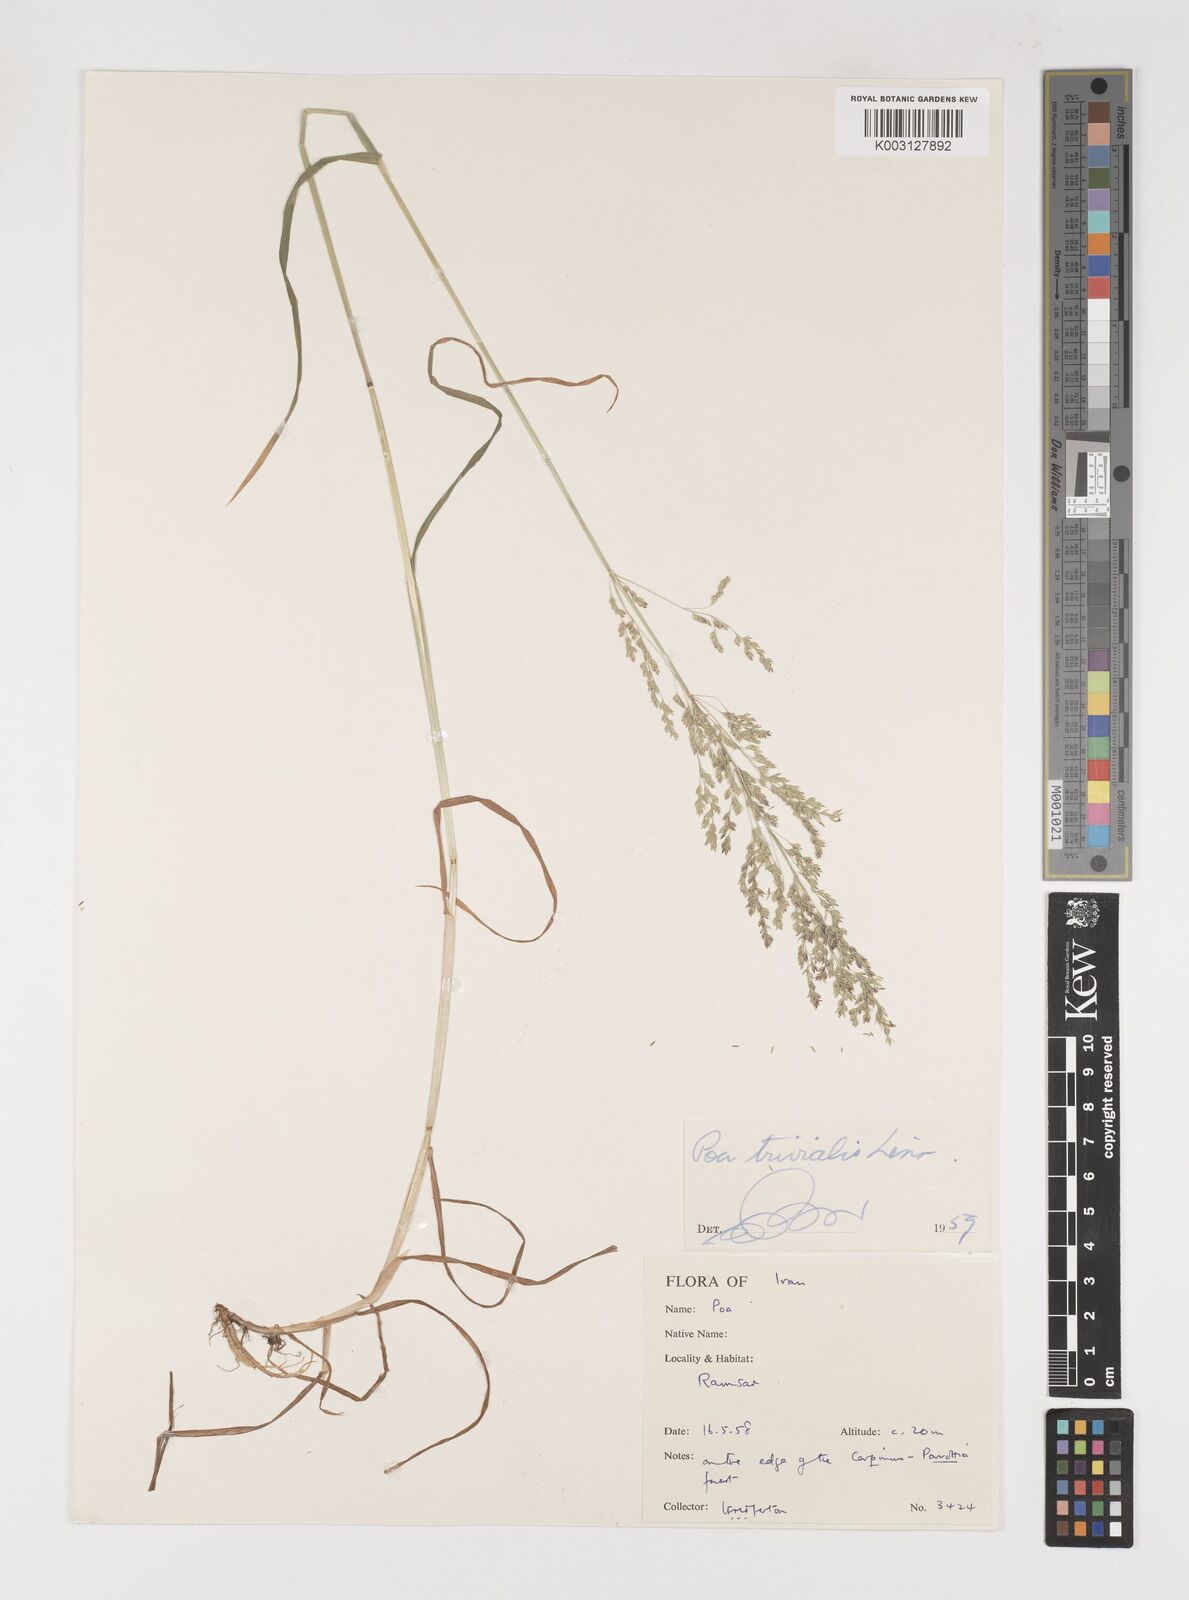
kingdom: Plantae
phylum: Tracheophyta
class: Liliopsida
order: Poales
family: Poaceae
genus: Poa
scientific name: Poa trivialis
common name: Rough bluegrass
